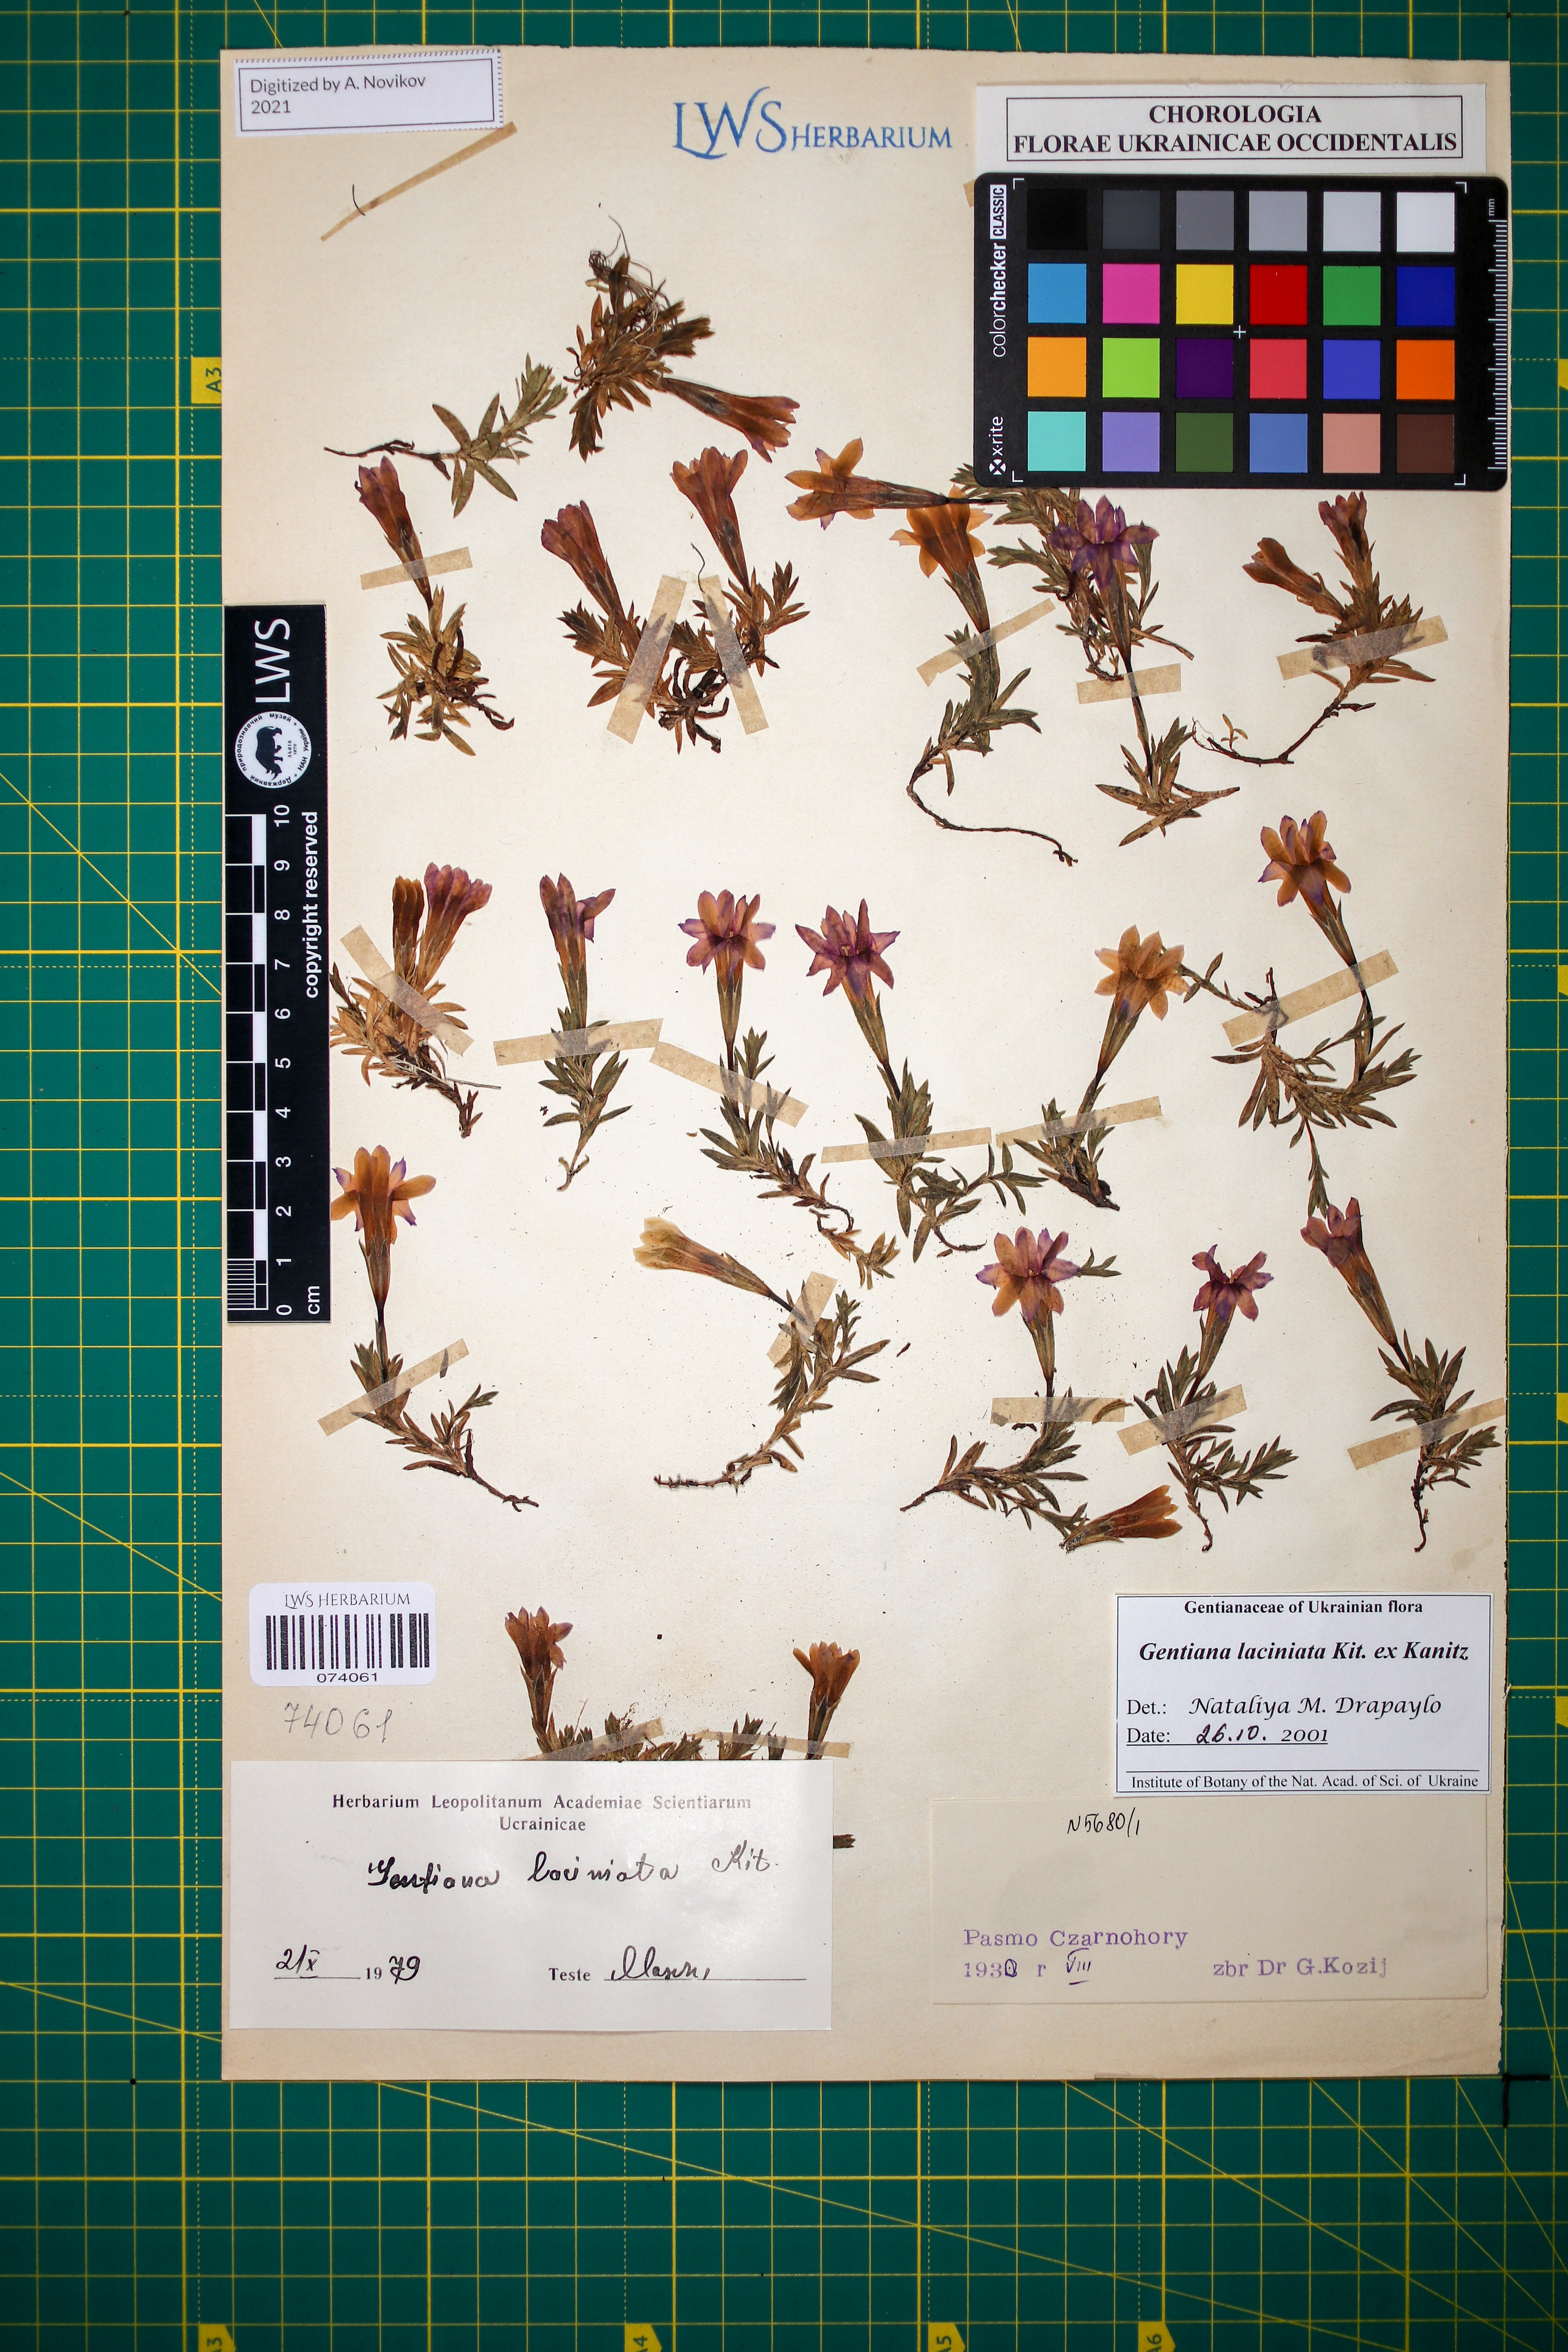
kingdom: Plantae
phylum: Tracheophyta
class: Magnoliopsida
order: Gentianales
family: Gentianaceae
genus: Gentiana
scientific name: Gentiana laciniata
